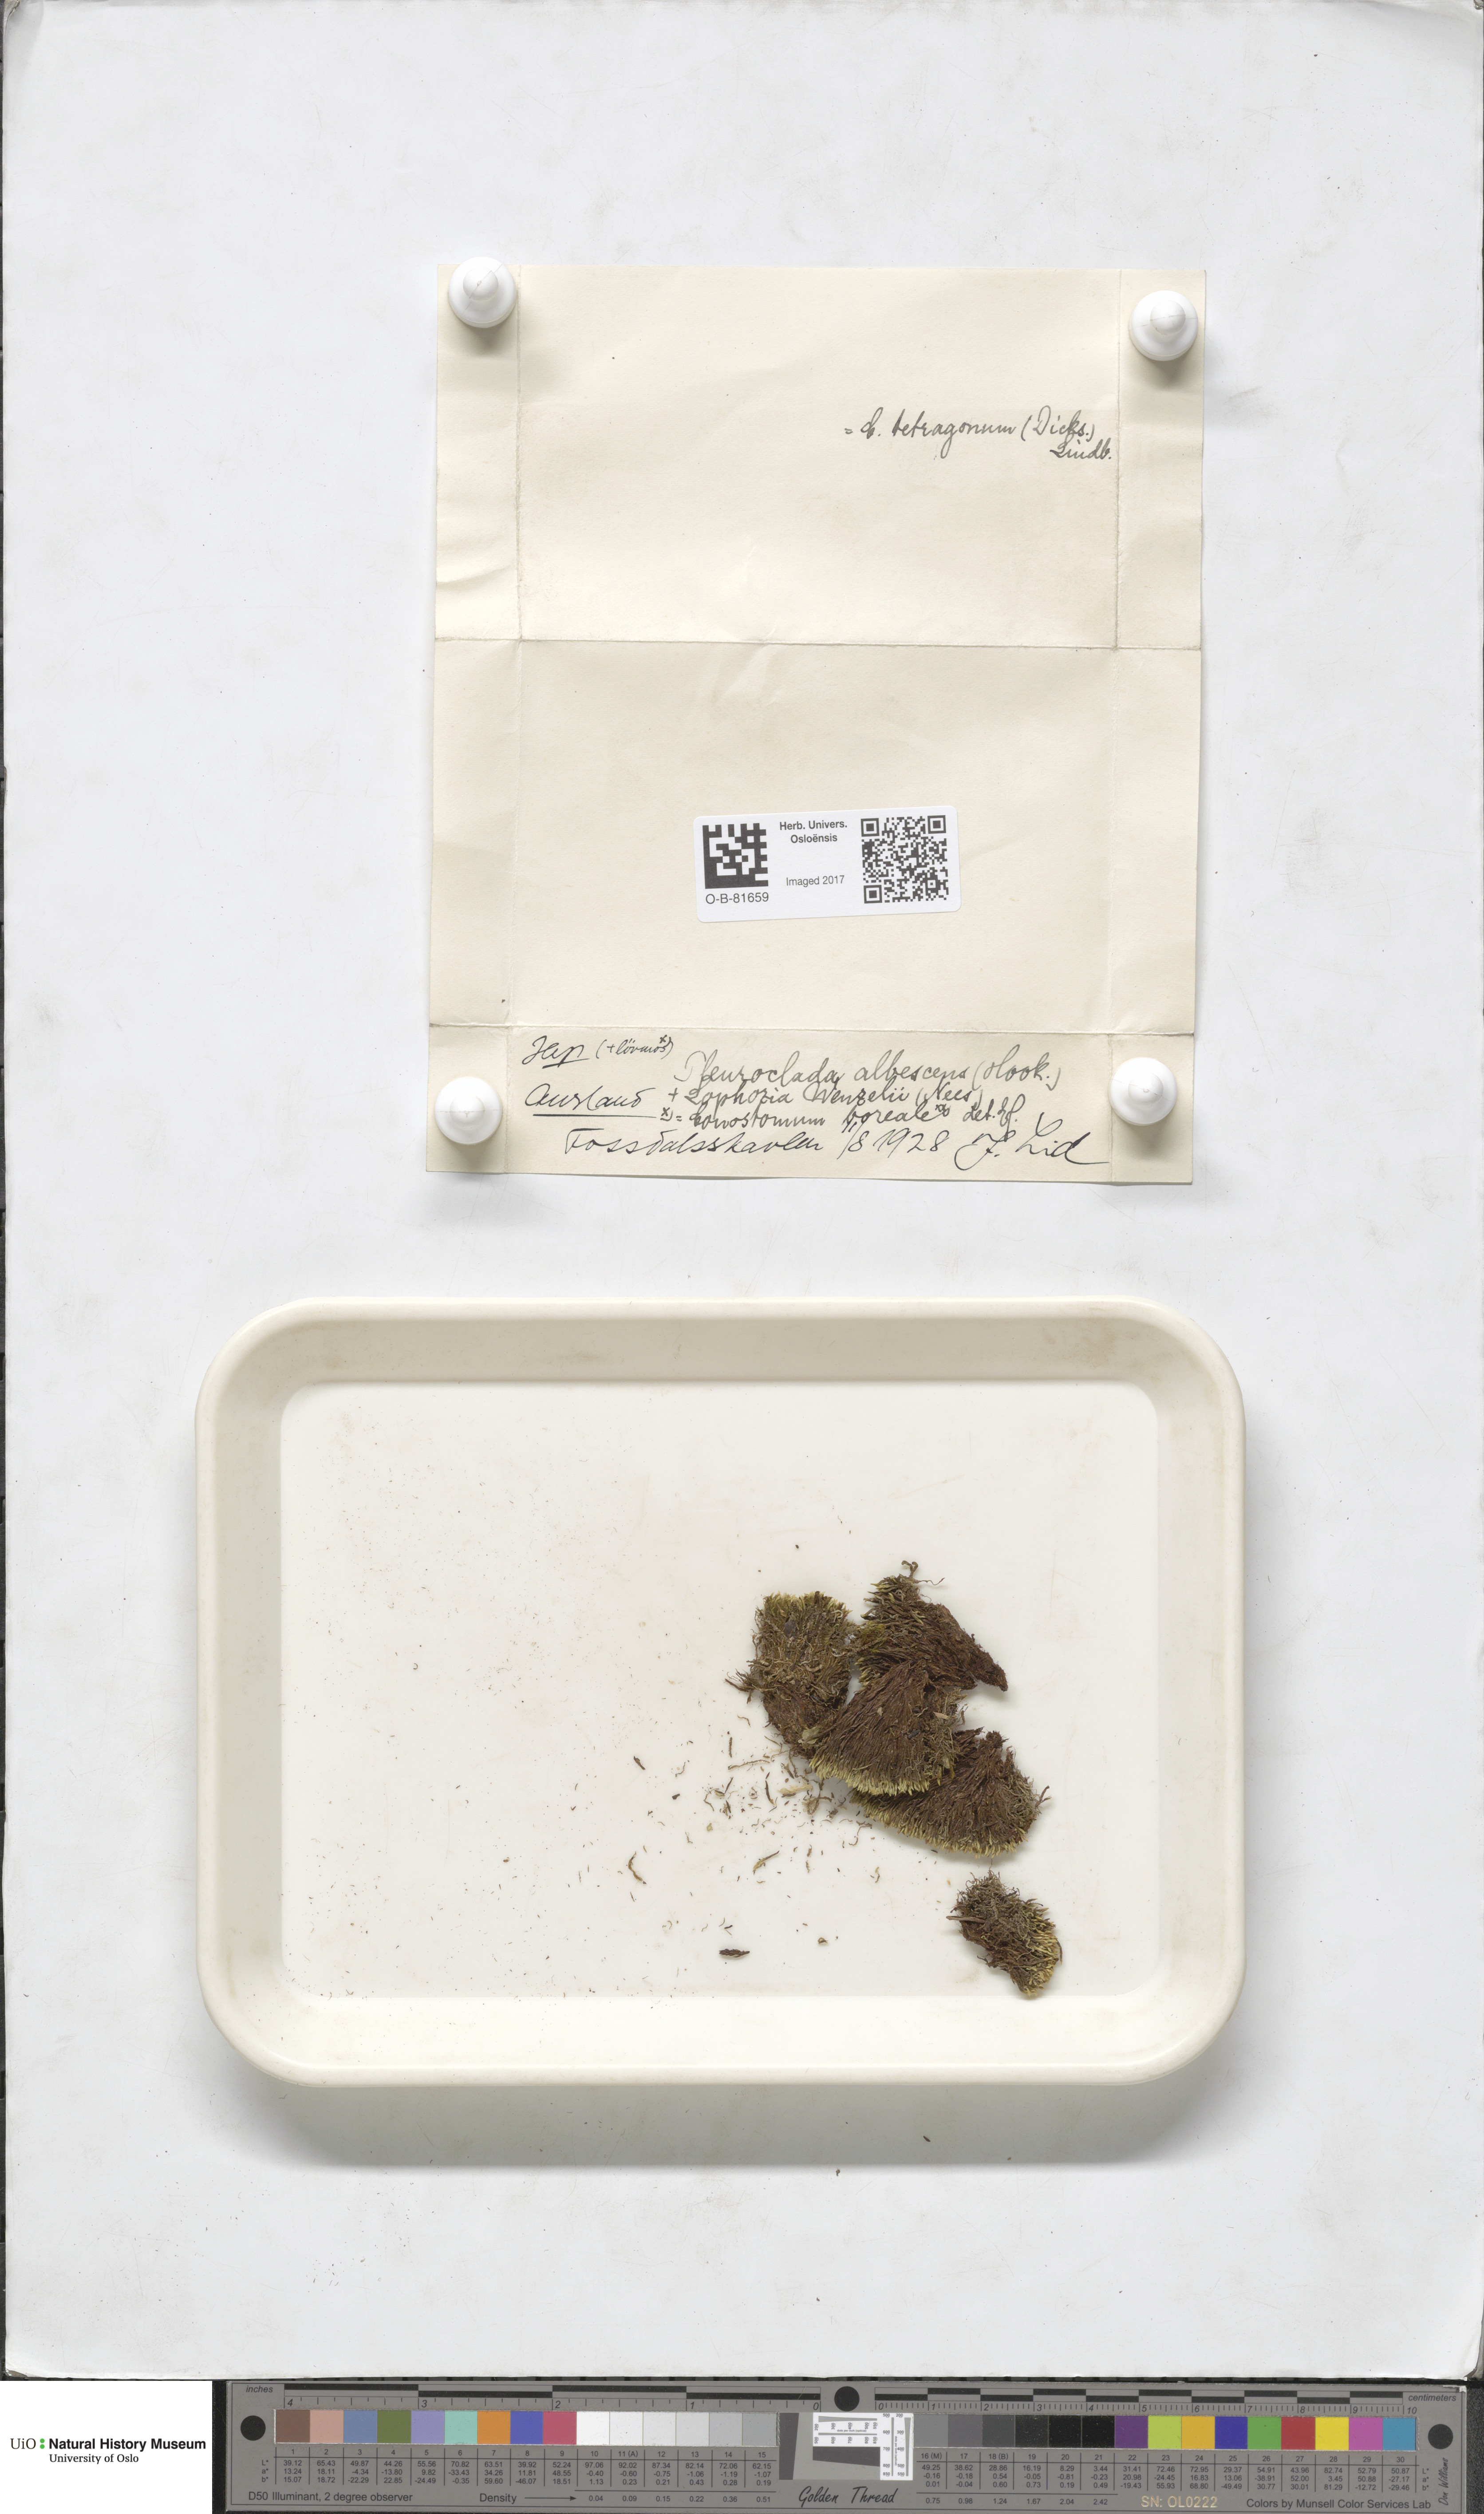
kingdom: Plantae
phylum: Marchantiophyta
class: Jungermanniopsida
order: Jungermanniales
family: Cephaloziaceae
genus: Fuscocephaloziopsis
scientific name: Fuscocephaloziopsis albescens
